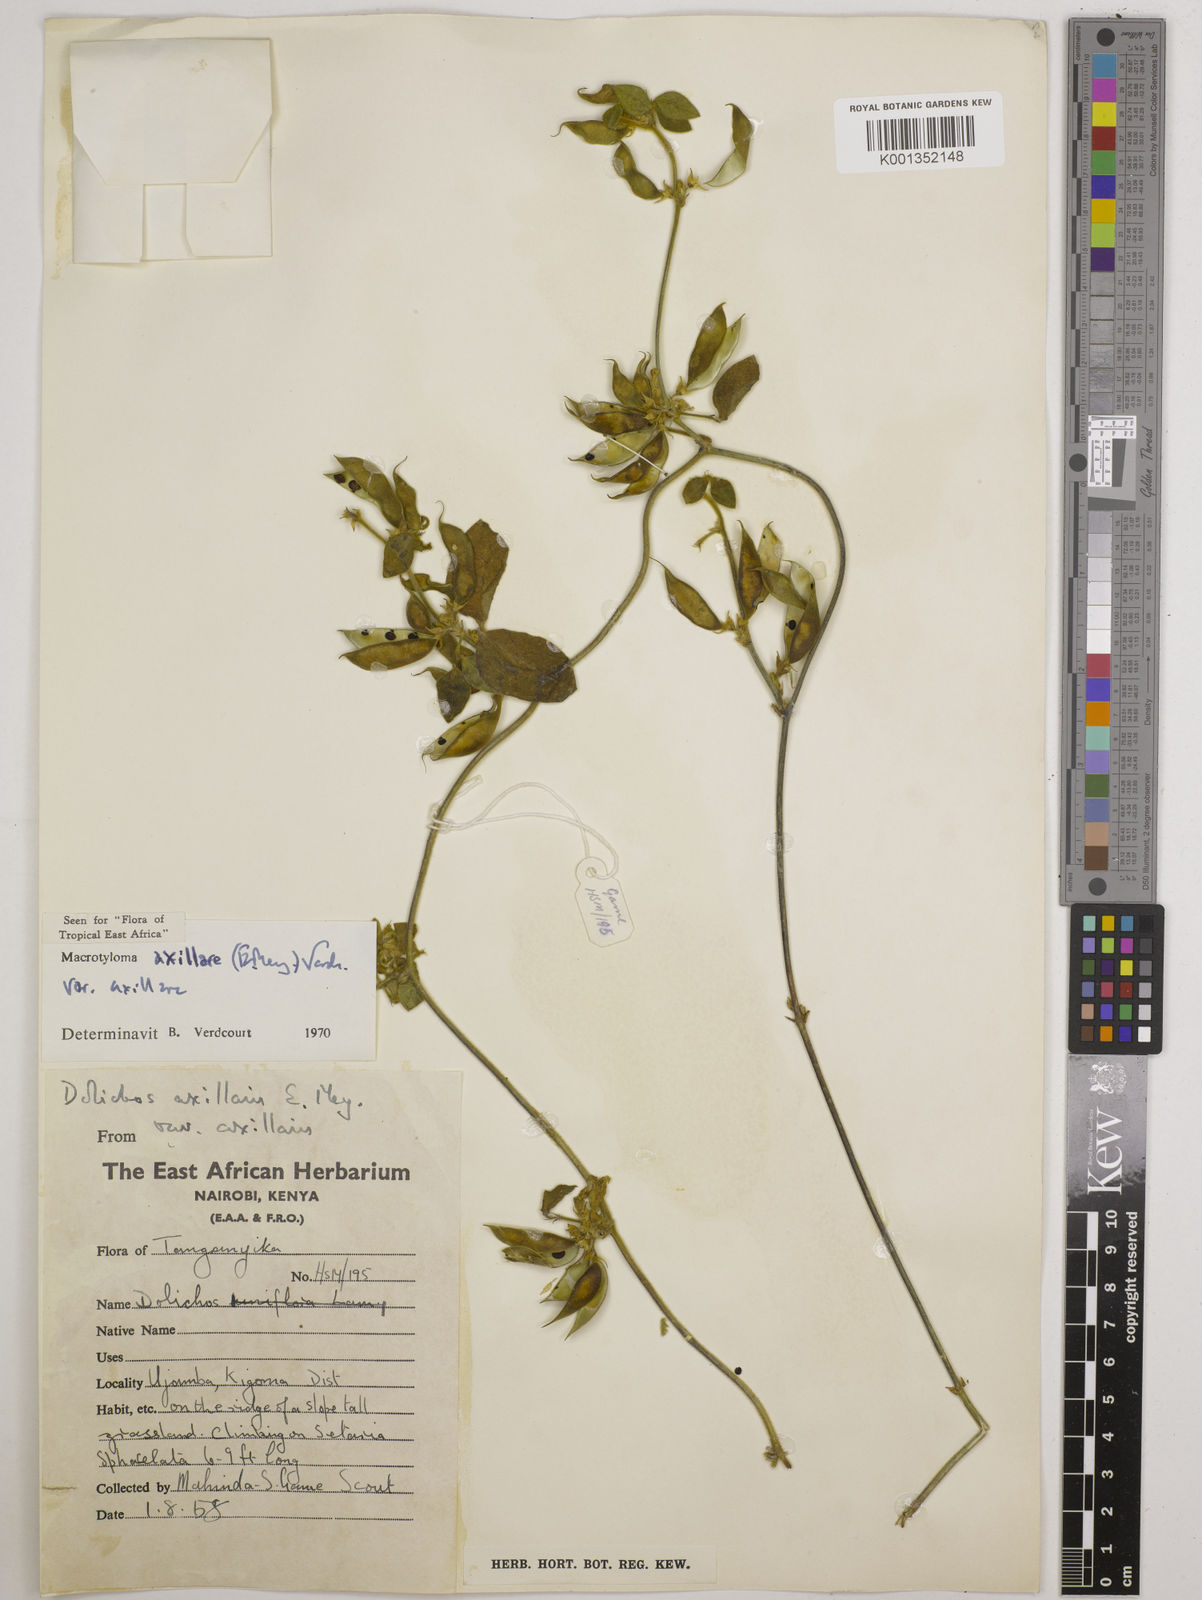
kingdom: Plantae
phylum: Tracheophyta
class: Magnoliopsida
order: Fabales
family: Fabaceae
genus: Macrotyloma
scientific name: Macrotyloma axillare
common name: Perennial horsegram
